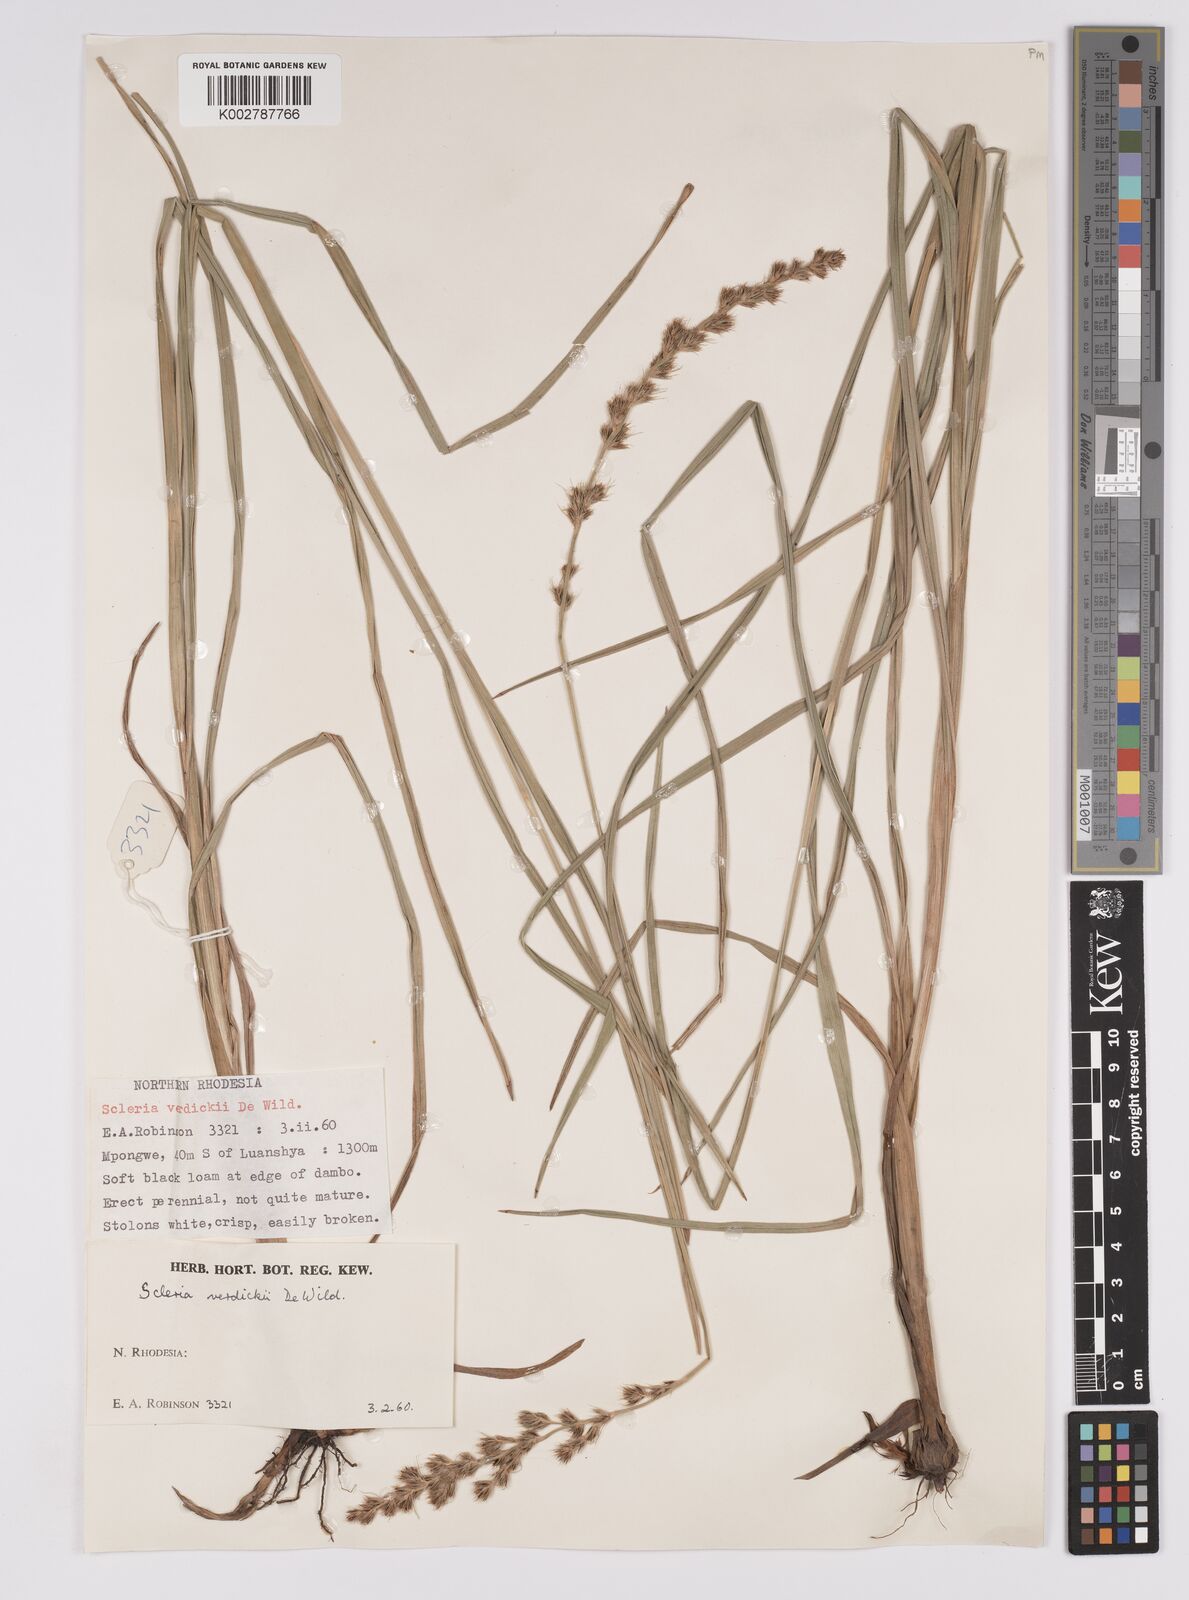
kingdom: Plantae
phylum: Tracheophyta
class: Liliopsida
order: Poales
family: Cyperaceae
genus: Scleria
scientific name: Scleria bulbifera
